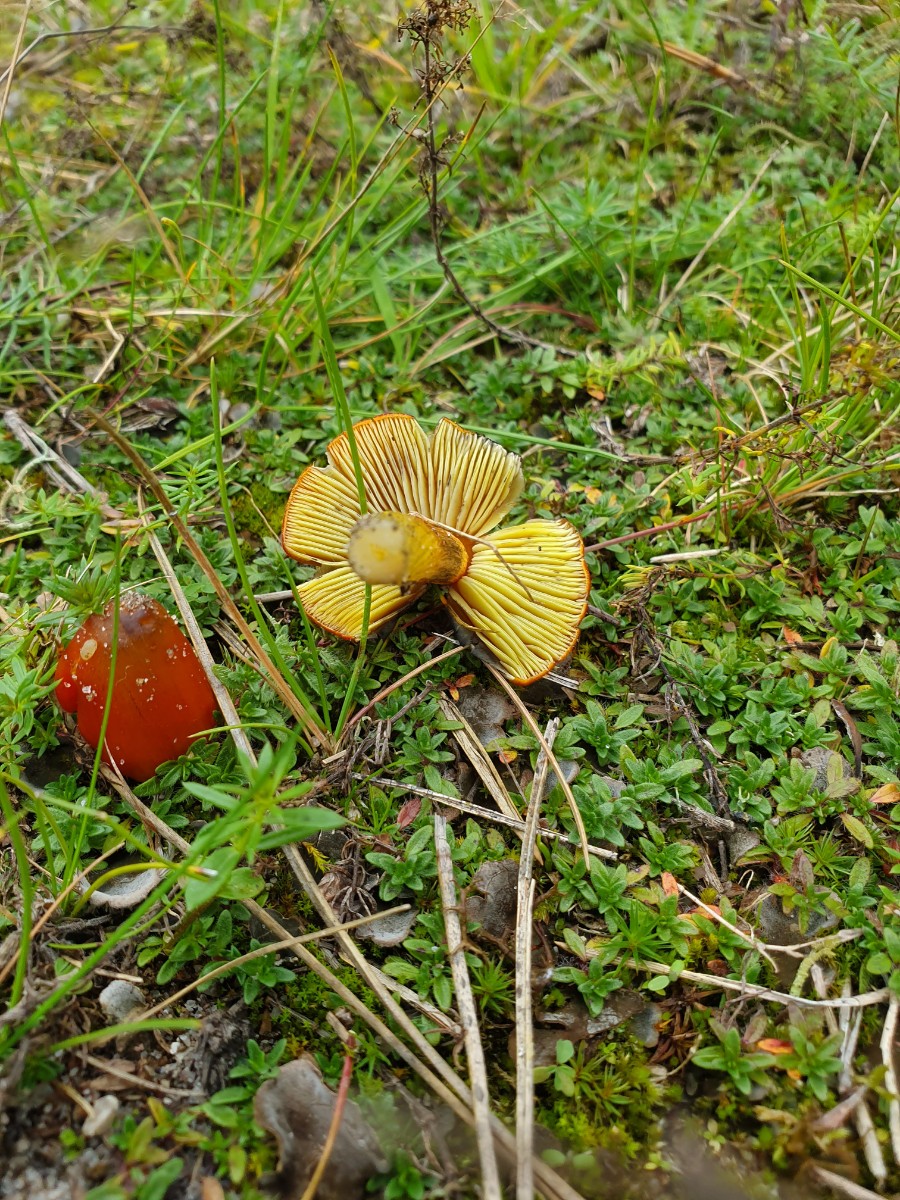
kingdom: Fungi
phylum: Basidiomycota
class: Agaricomycetes
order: Agaricales
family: Hygrophoraceae
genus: Hygrocybe
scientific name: Hygrocybe conica
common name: kegle-vokshat
